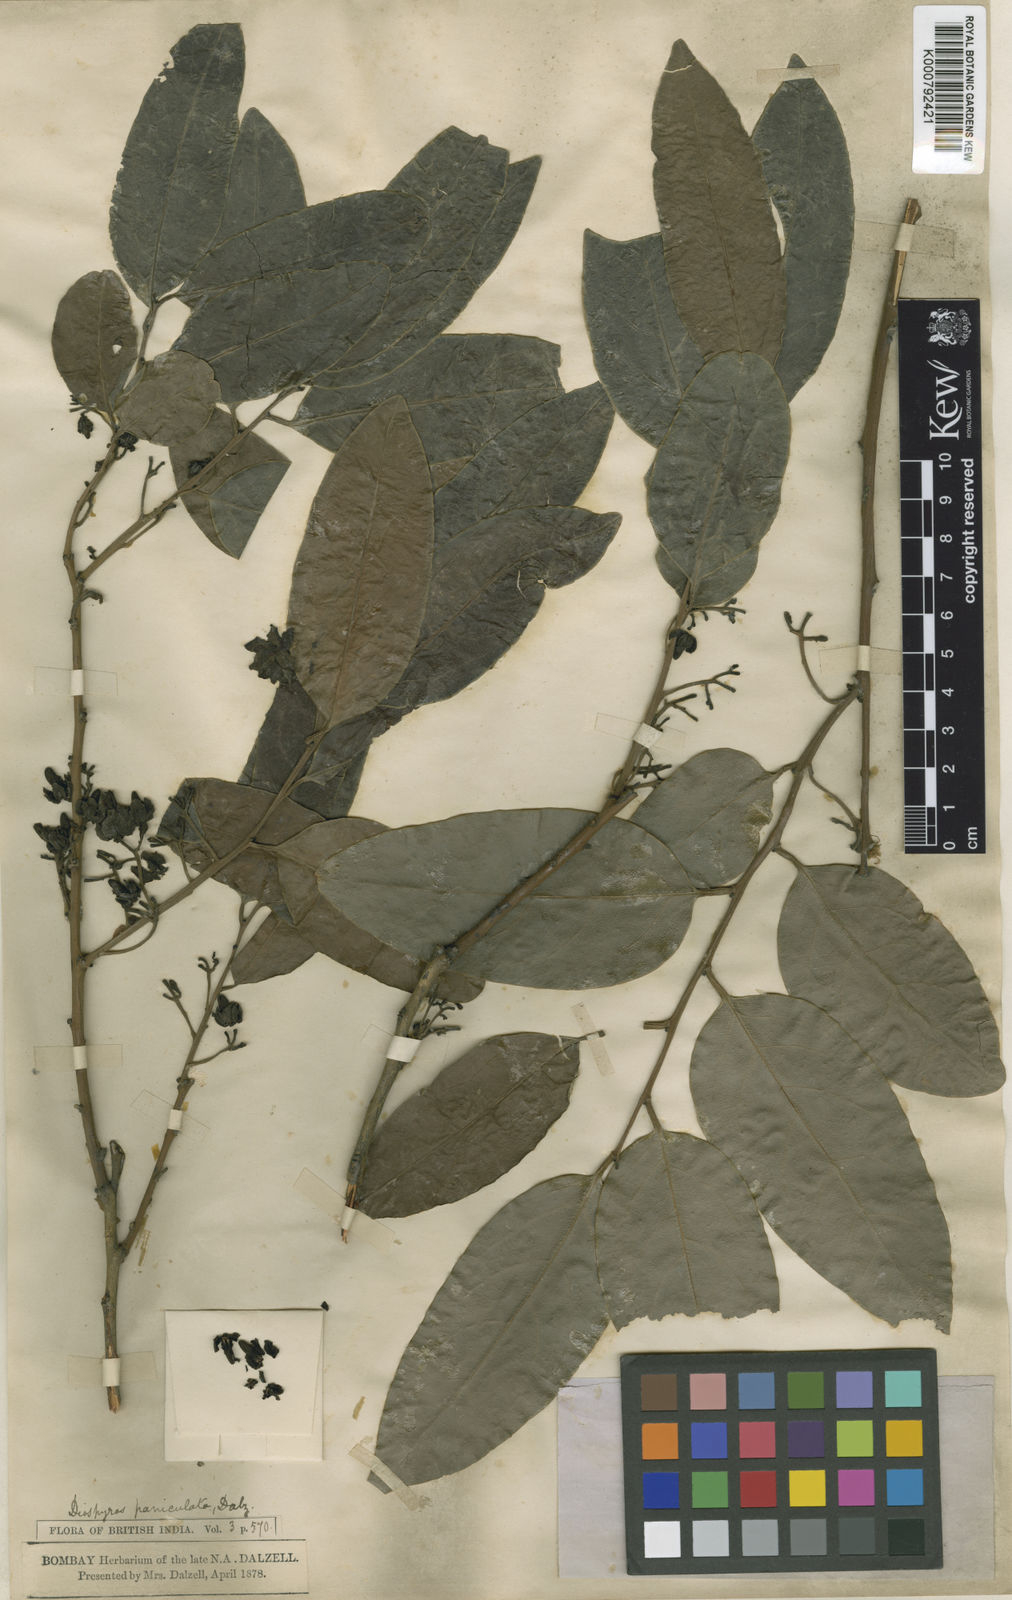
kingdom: Plantae
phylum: Tracheophyta
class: Magnoliopsida
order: Ericales
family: Ebenaceae
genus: Diospyros
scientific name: Diospyros paniculata
